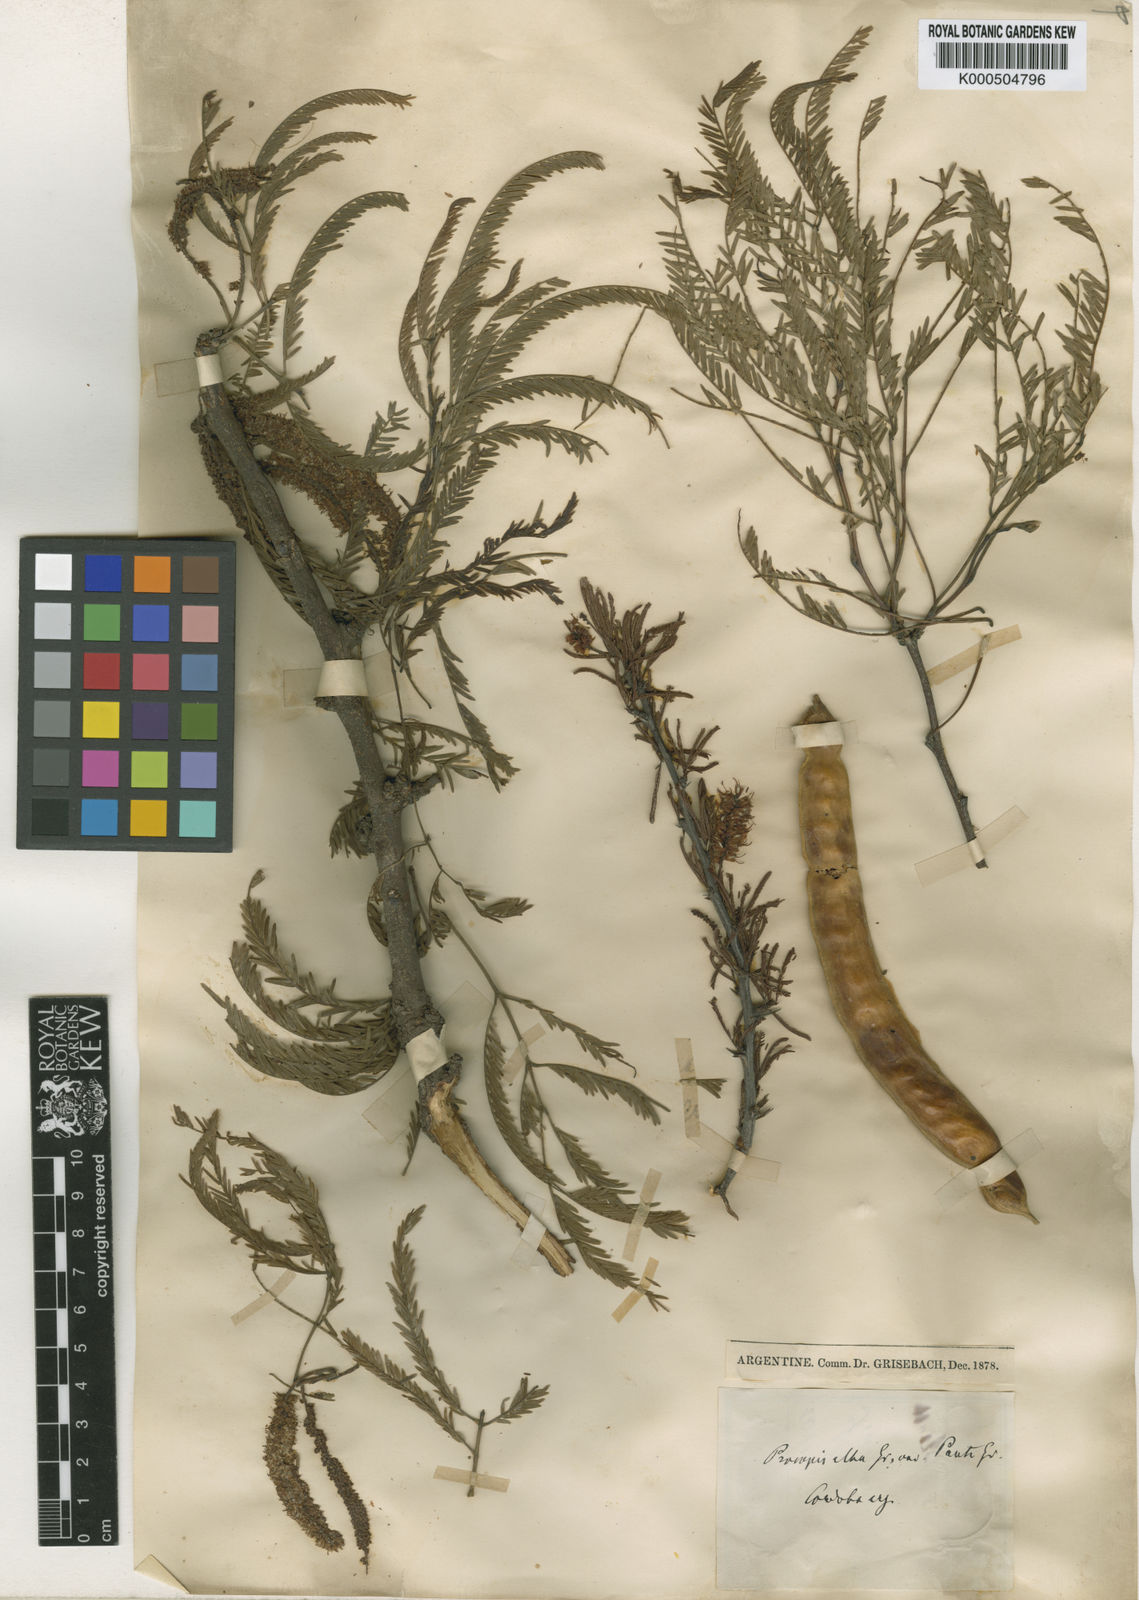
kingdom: Plantae
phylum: Tracheophyta
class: Magnoliopsida
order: Fabales
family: Fabaceae
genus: Prosopis
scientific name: Prosopis alba
